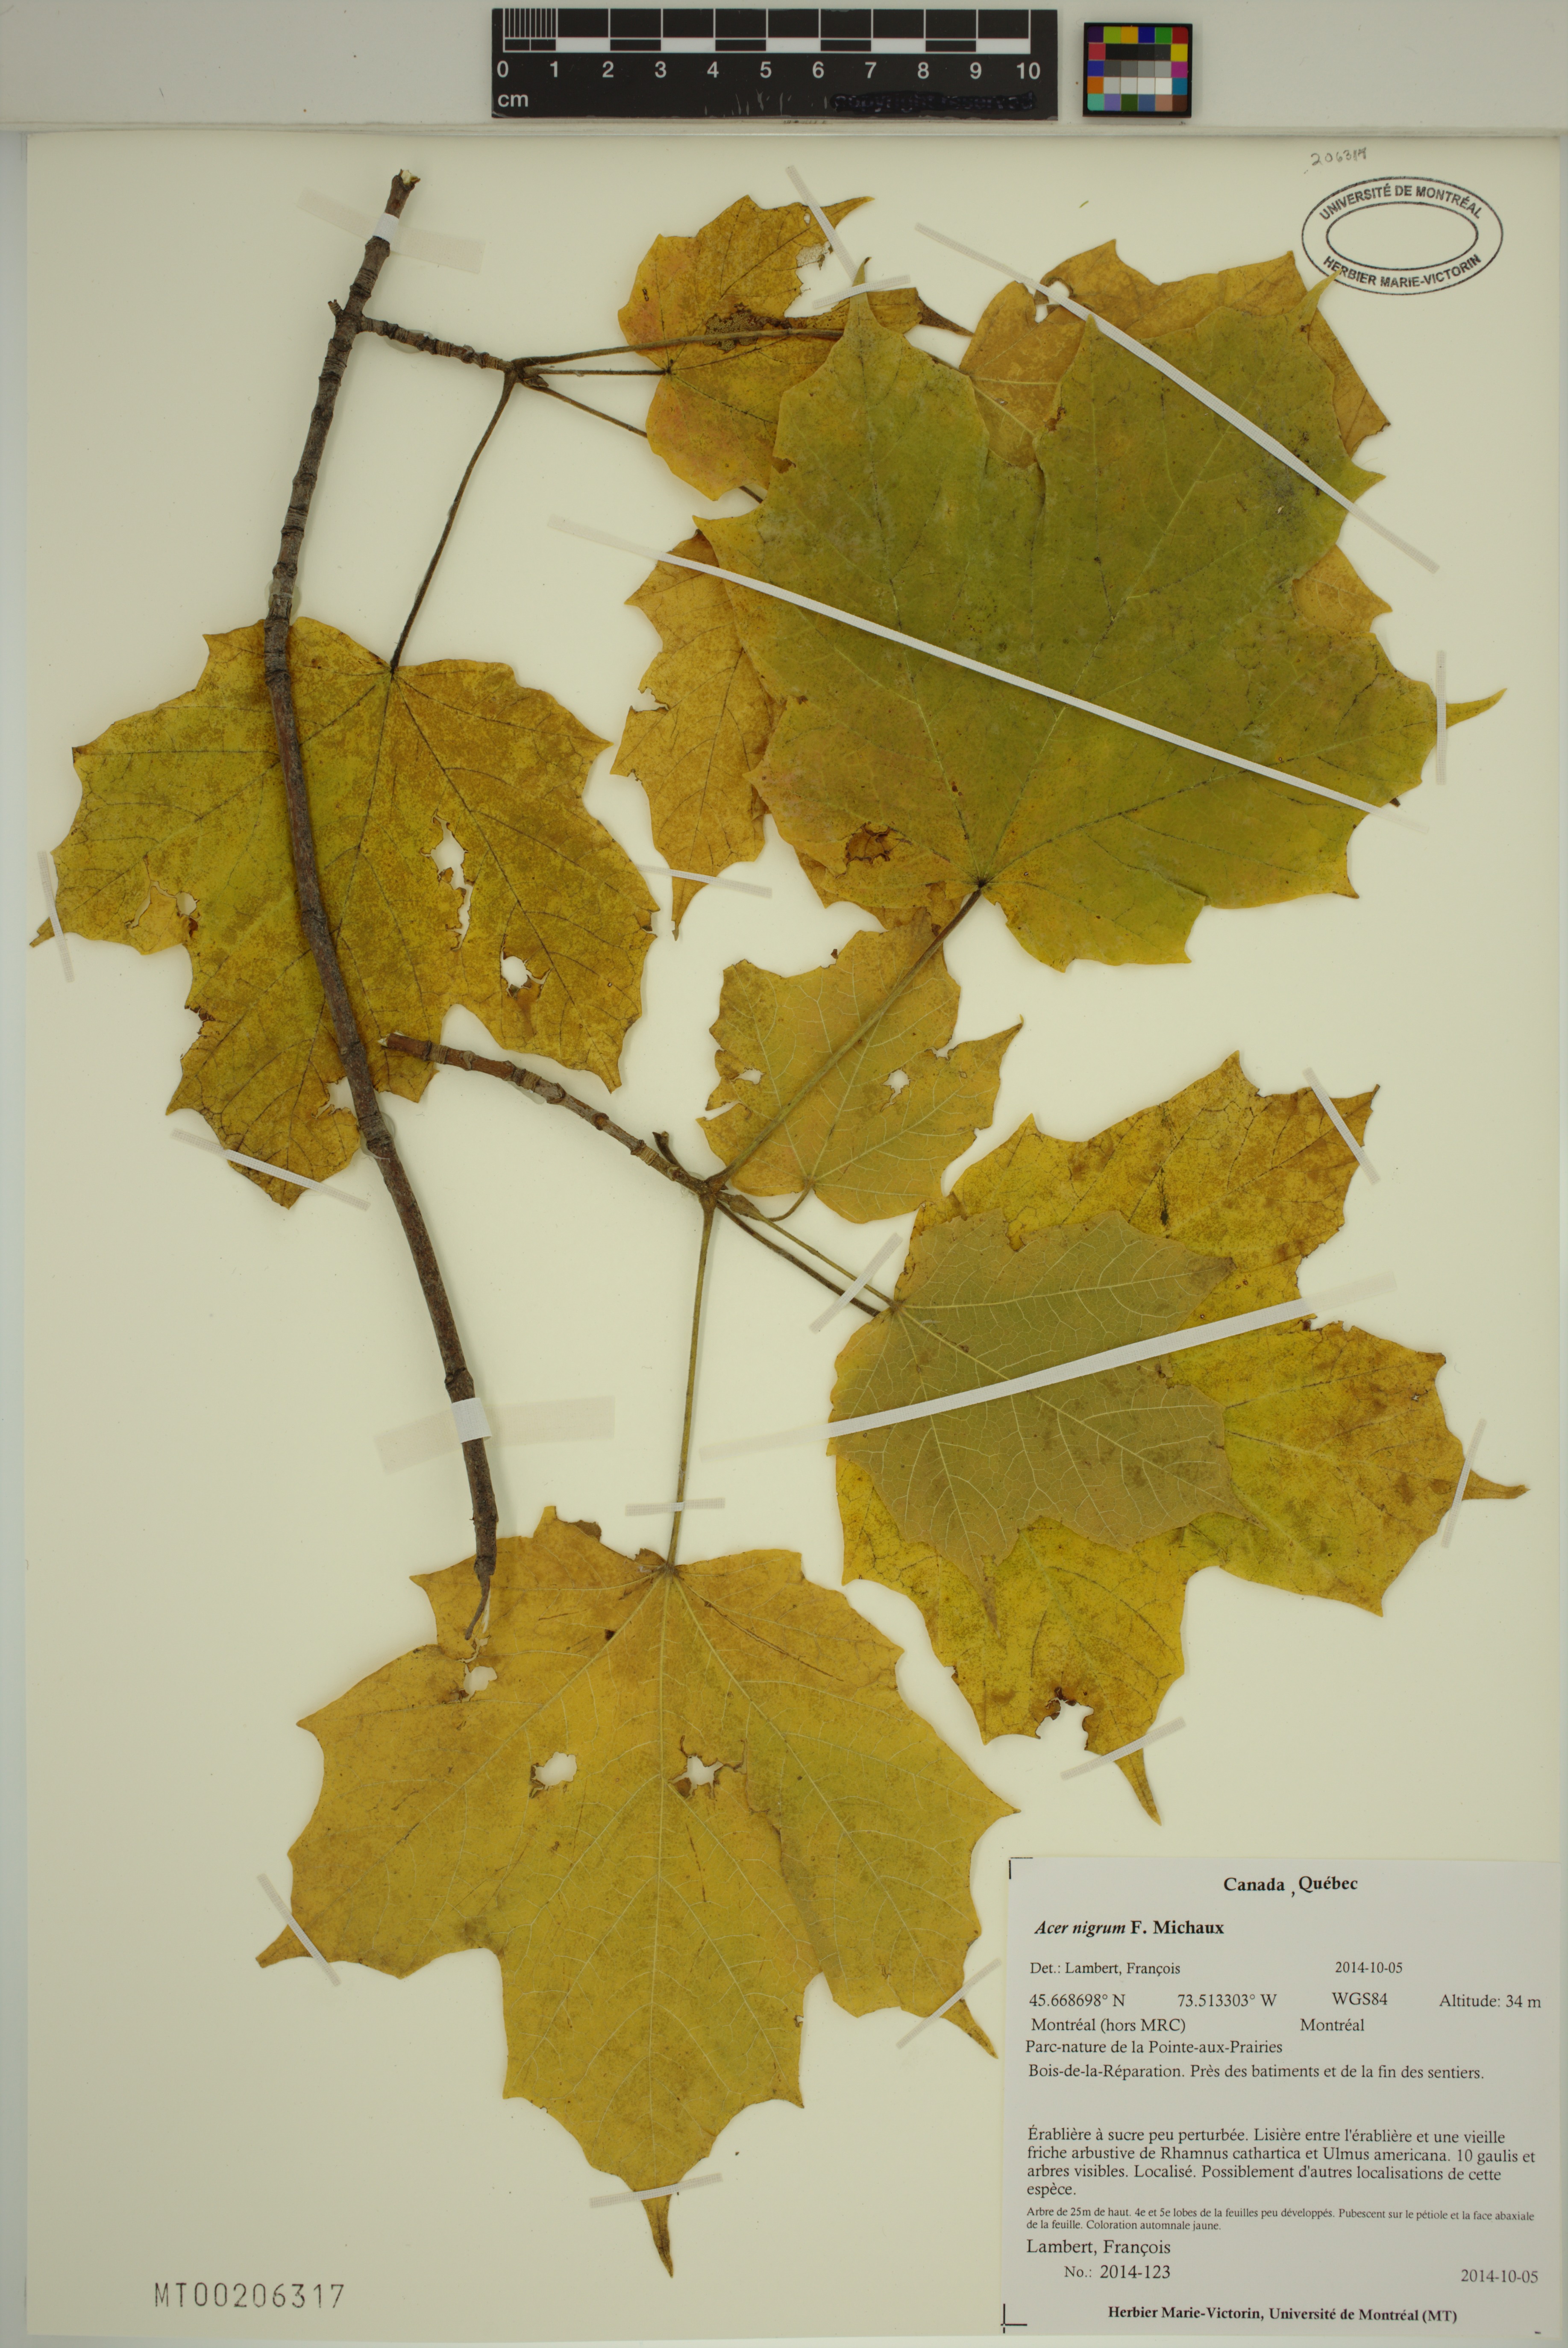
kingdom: Plantae
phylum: Tracheophyta
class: Magnoliopsida
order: Sapindales
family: Sapindaceae
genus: Acer
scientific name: Acer nigrum
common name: Black maple
